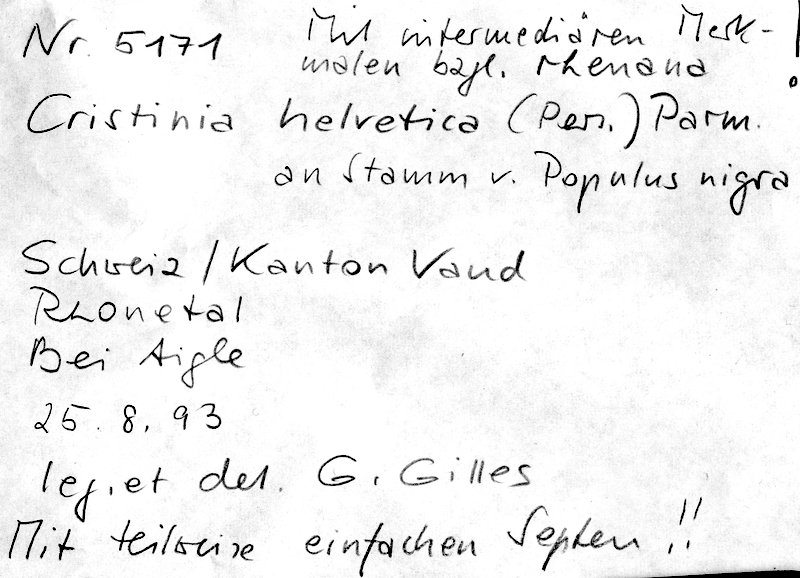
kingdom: Plantae
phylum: Tracheophyta
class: Magnoliopsida
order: Malpighiales
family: Salicaceae
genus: Populus
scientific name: Populus nigra
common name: Black poplar
